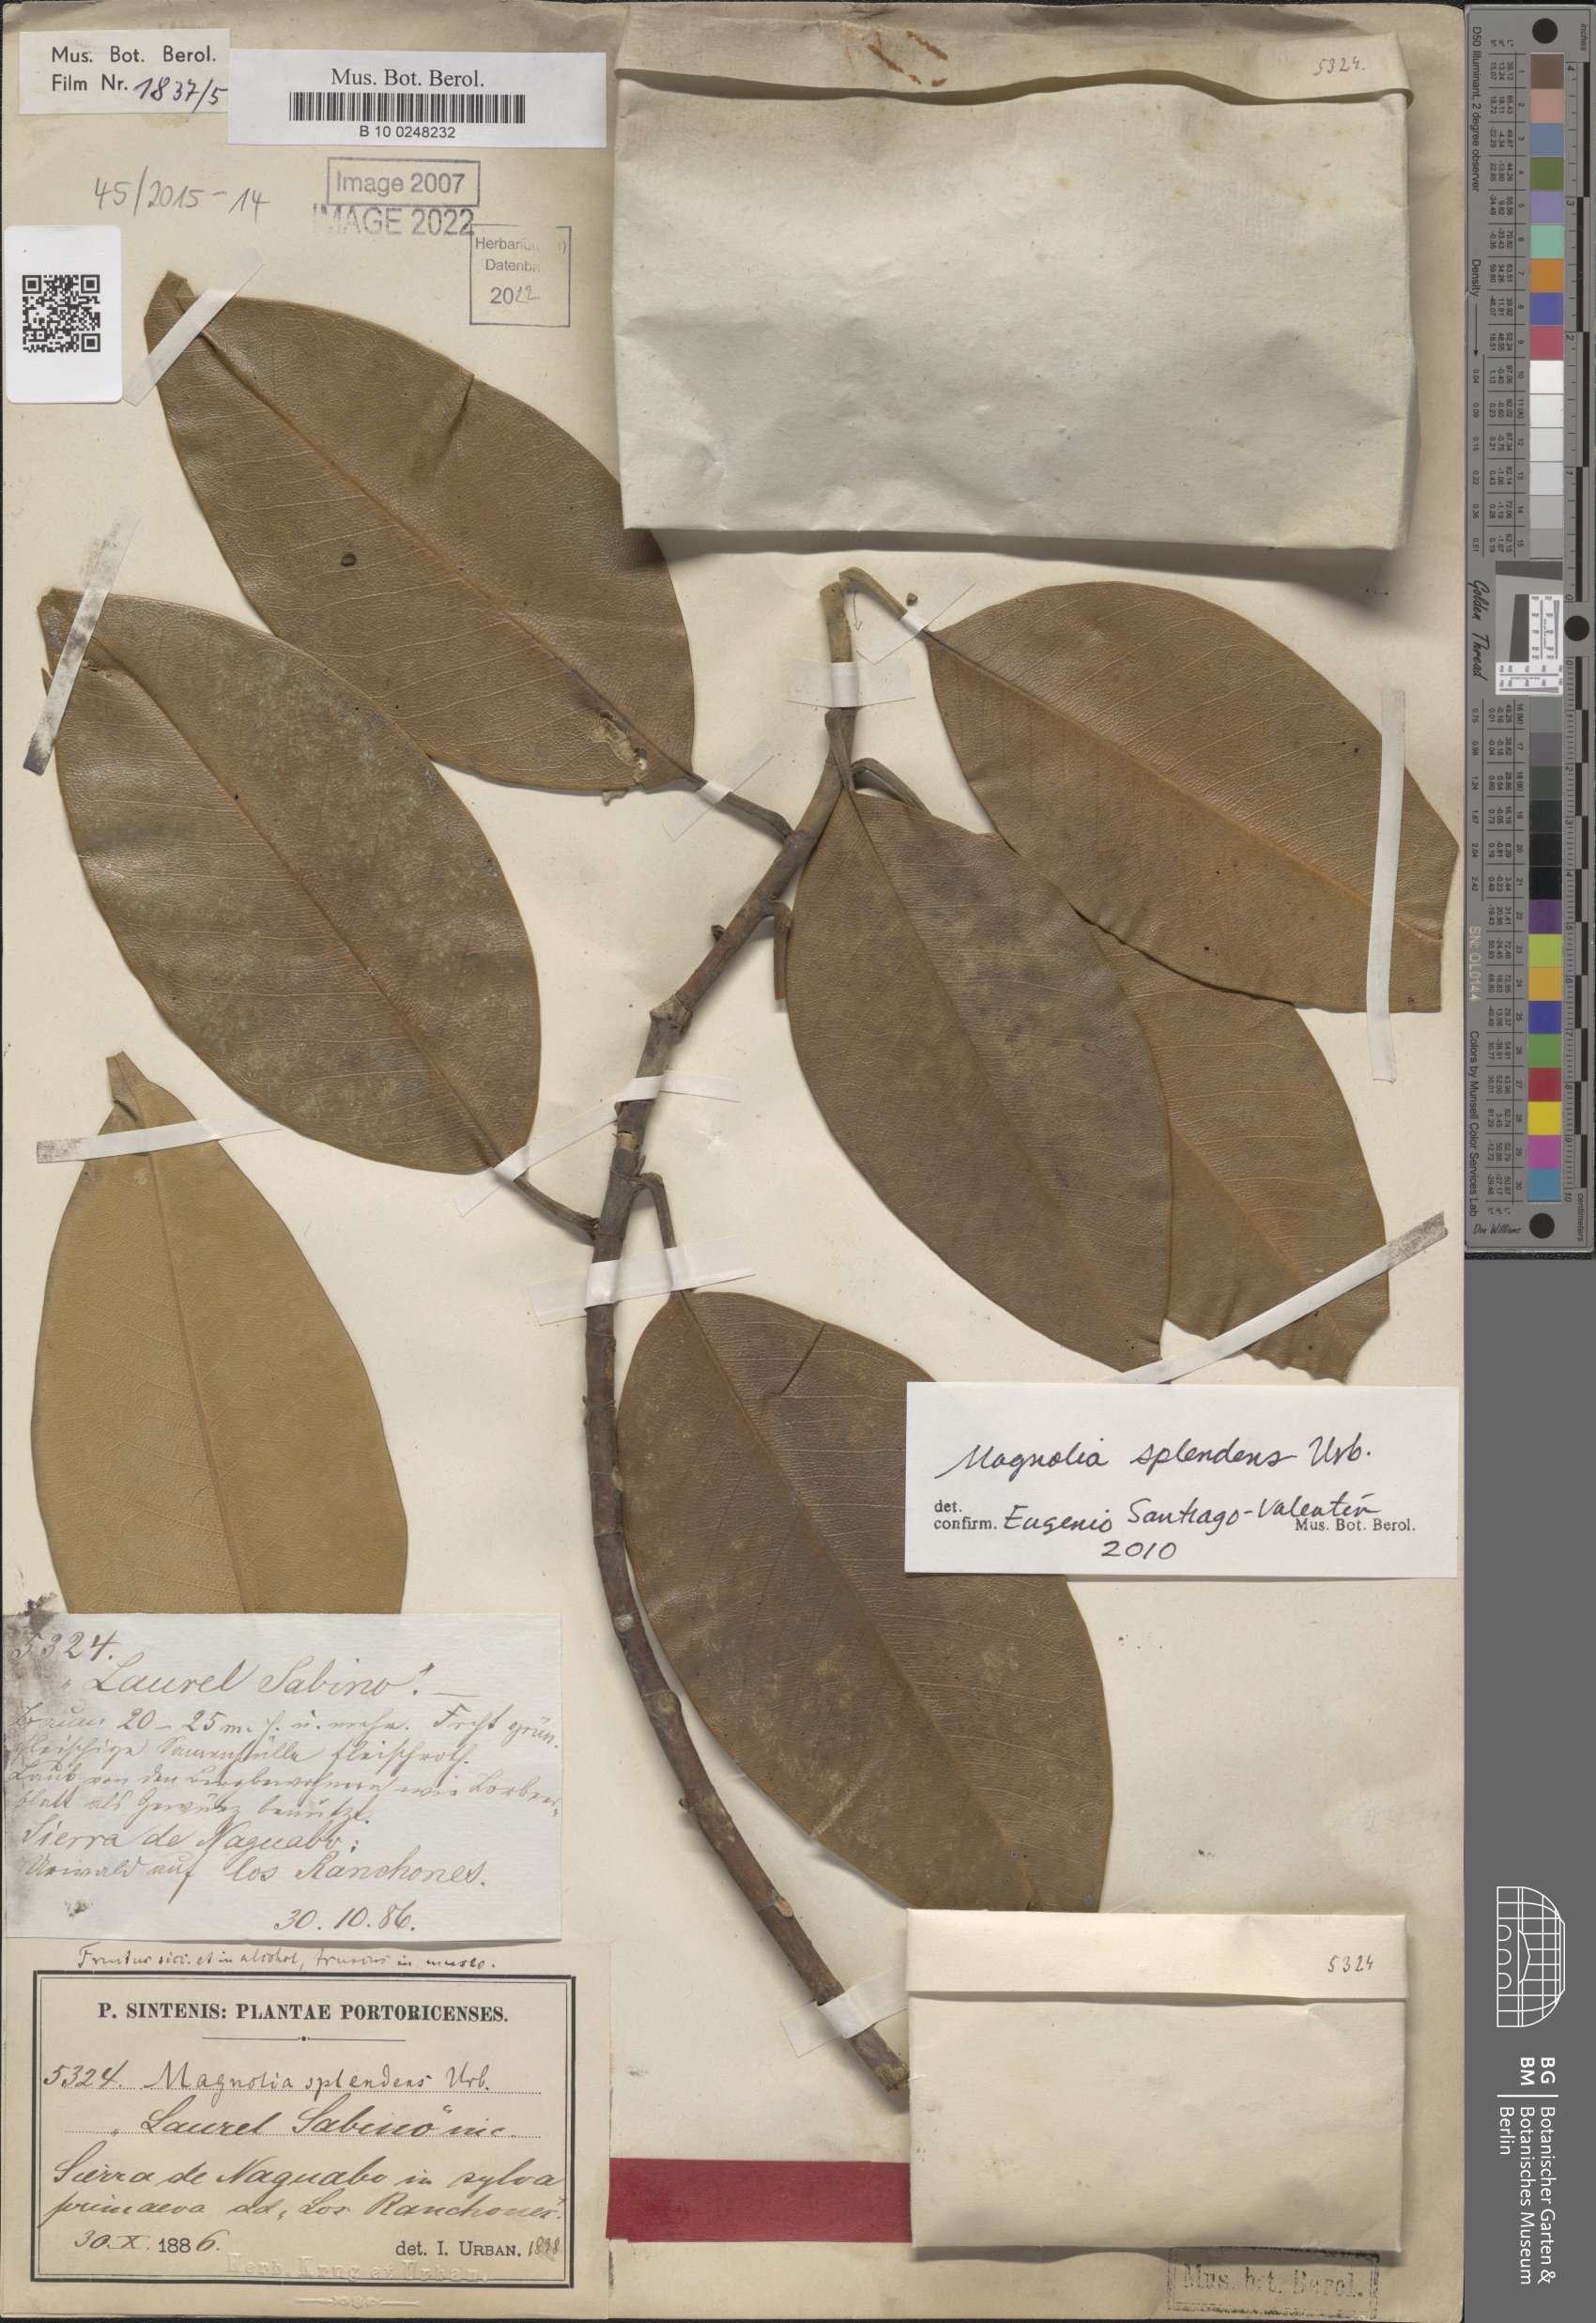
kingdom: Plantae
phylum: Tracheophyta
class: Magnoliopsida
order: Magnoliales
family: Magnoliaceae
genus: Magnolia
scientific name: Magnolia splendens
